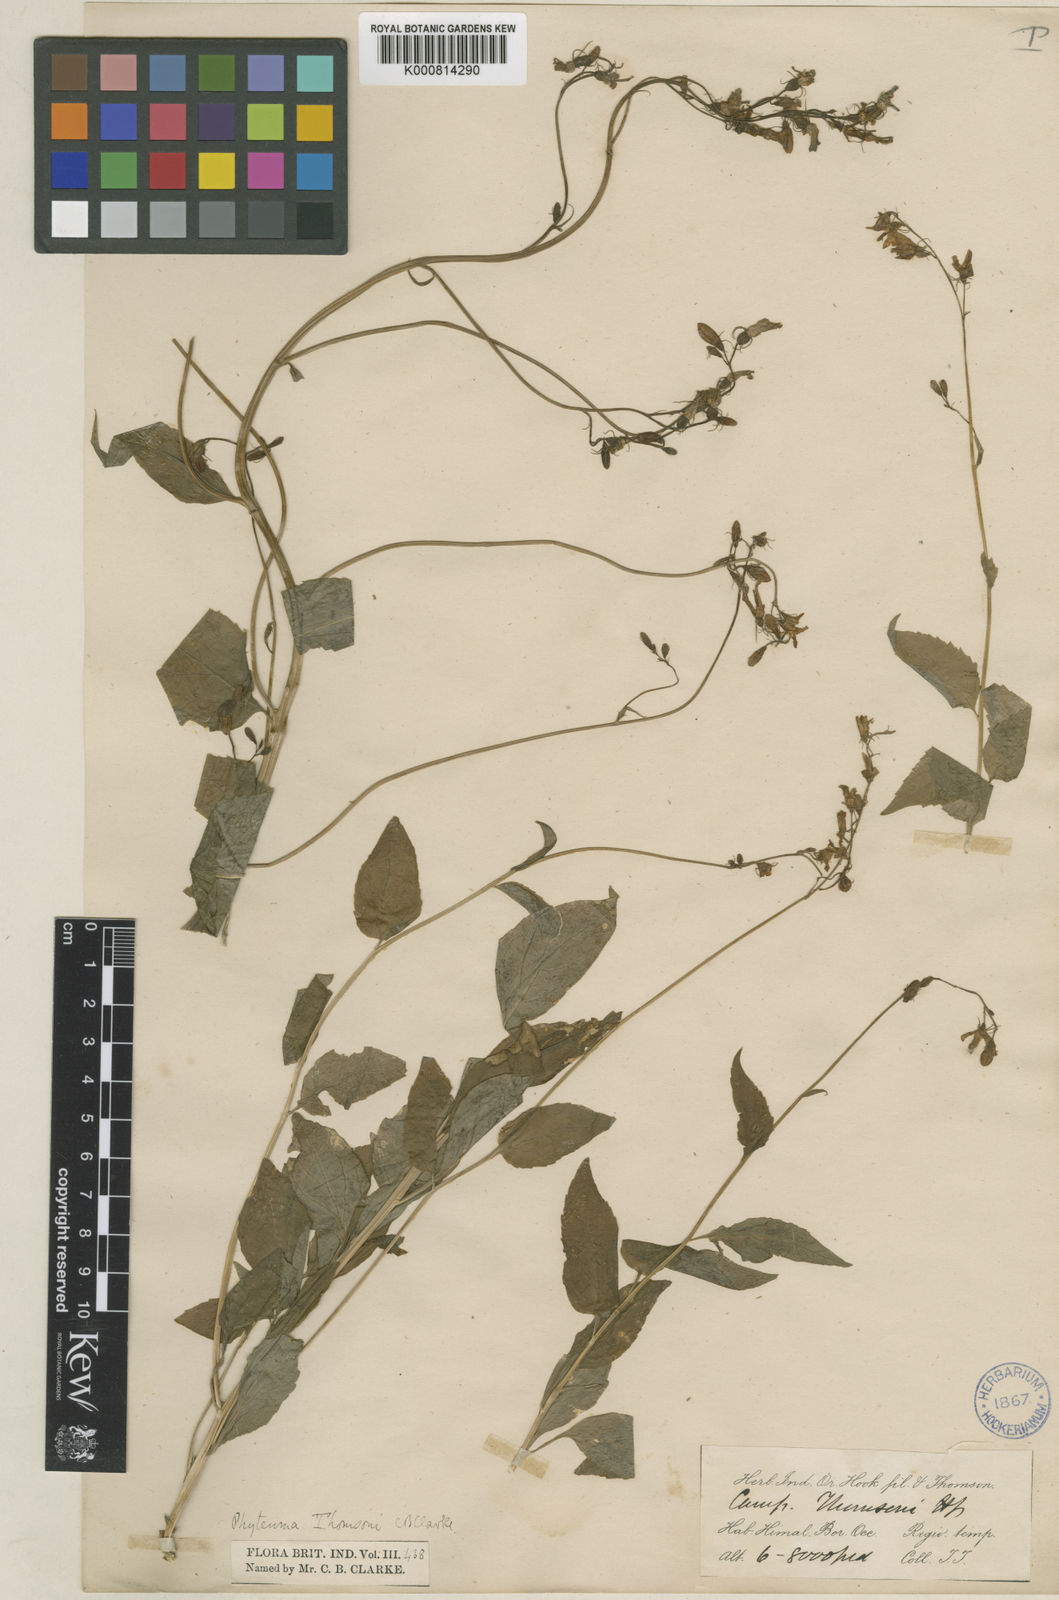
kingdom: Plantae
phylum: Tracheophyta
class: Magnoliopsida
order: Asterales
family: Campanulaceae
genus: Asyneuma
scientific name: Asyneuma thomsonii
